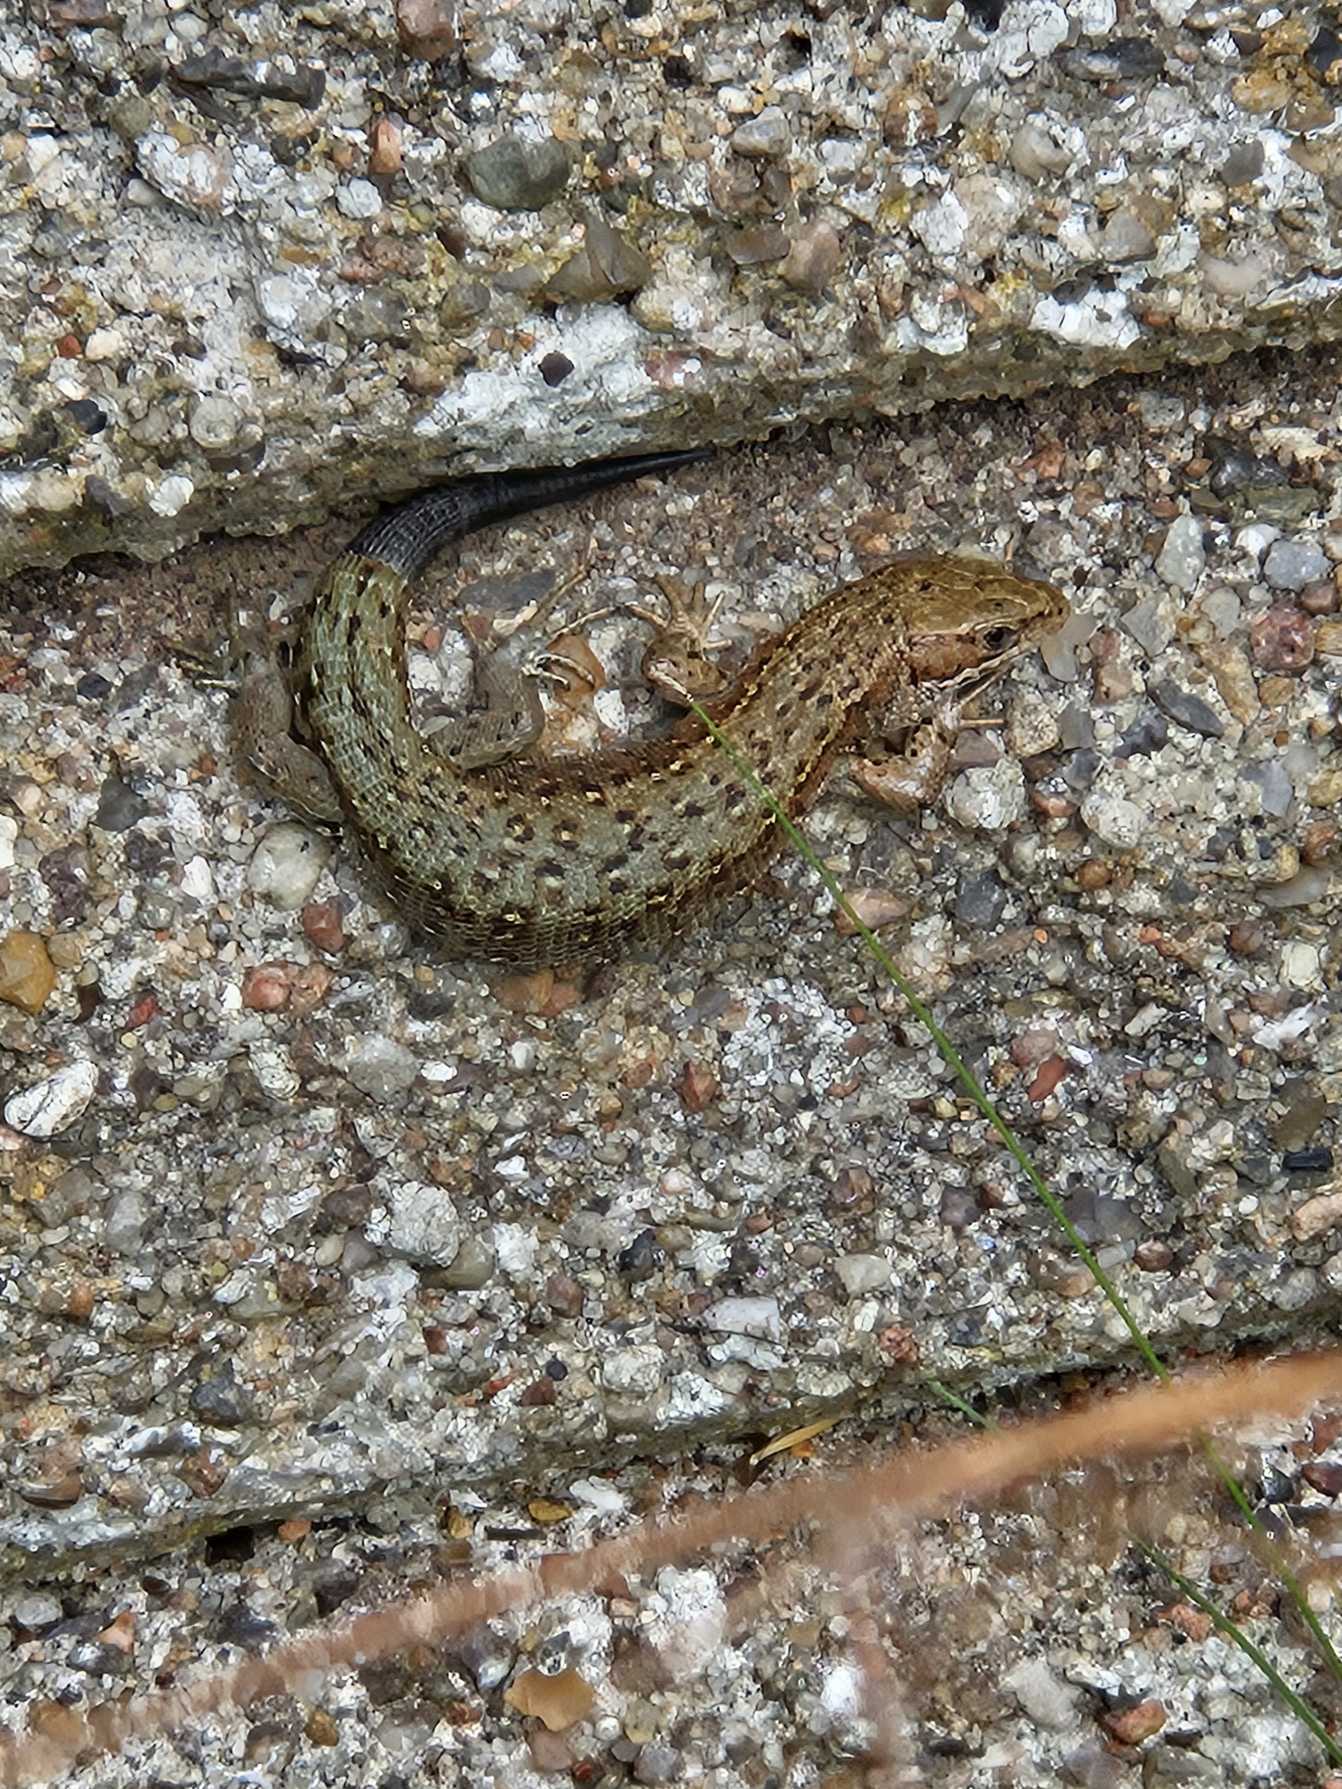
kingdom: Animalia
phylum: Chordata
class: Squamata
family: Lacertidae
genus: Zootoca
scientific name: Zootoca vivipara
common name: Skovfirben
